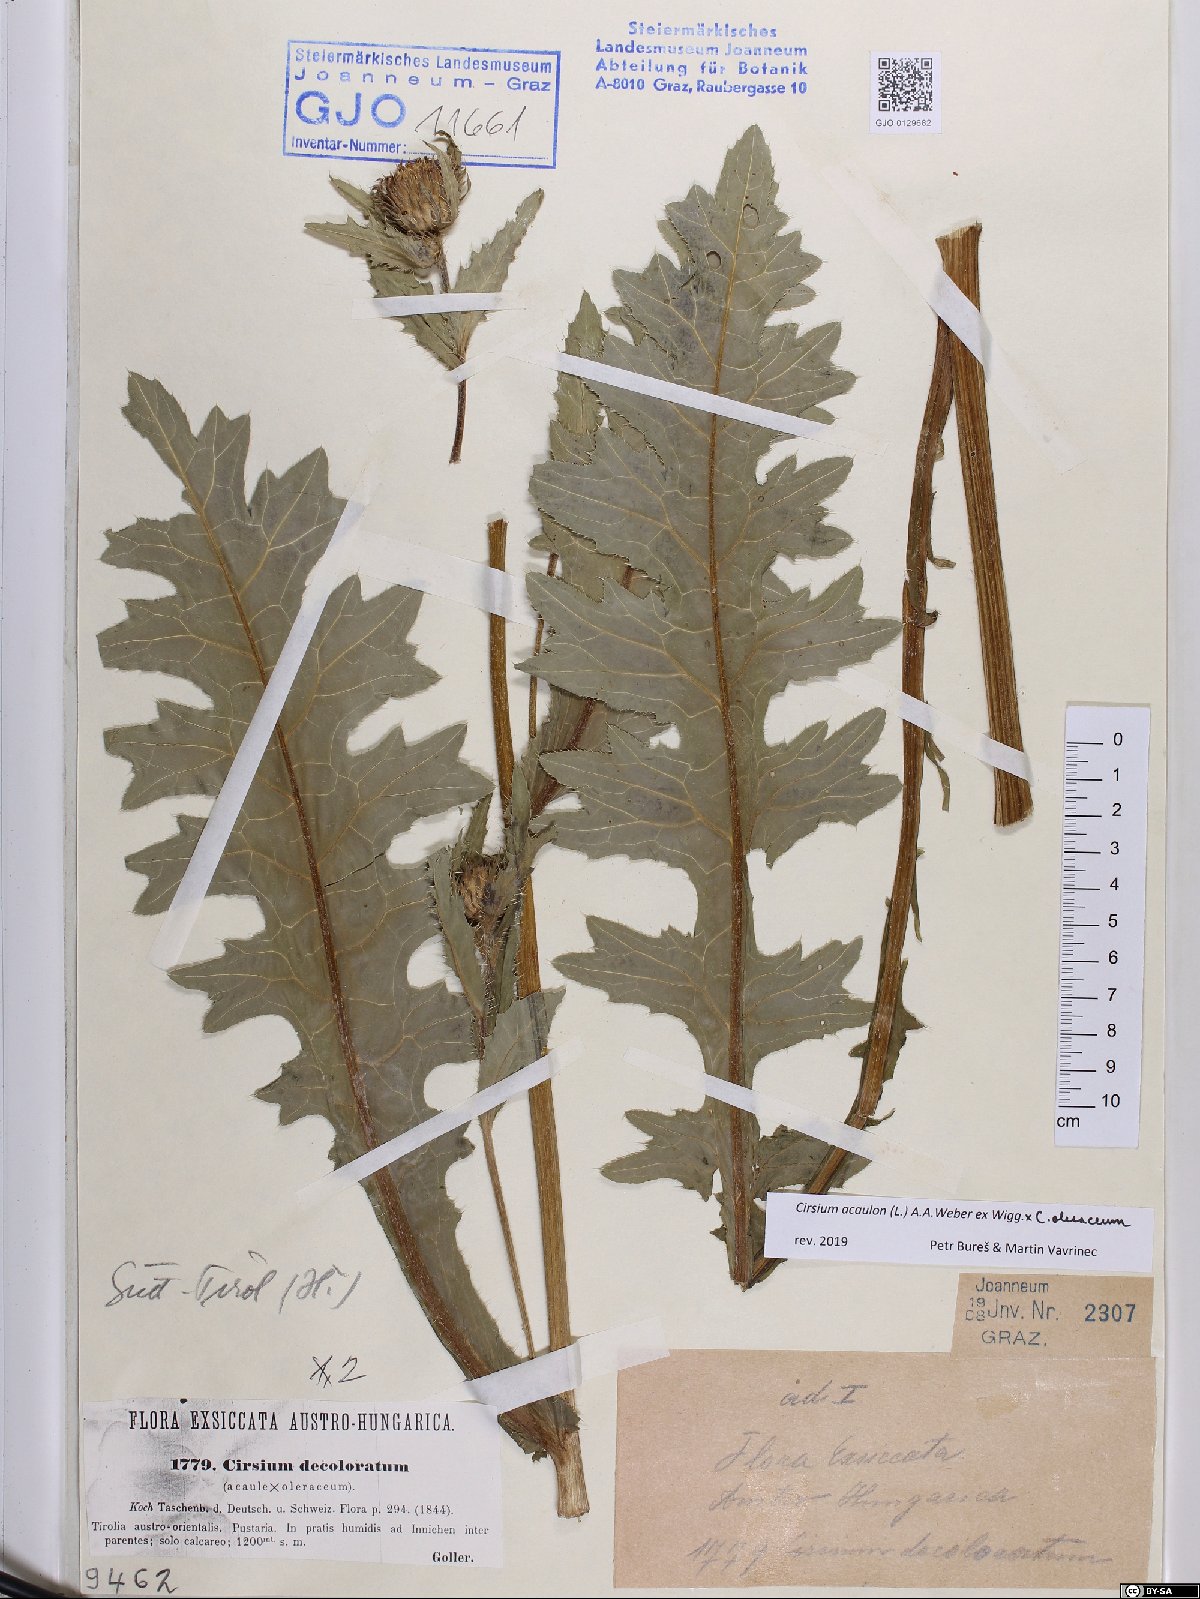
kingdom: Plantae
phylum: Tracheophyta
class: Magnoliopsida
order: Asterales
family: Asteraceae
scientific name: Asteraceae
